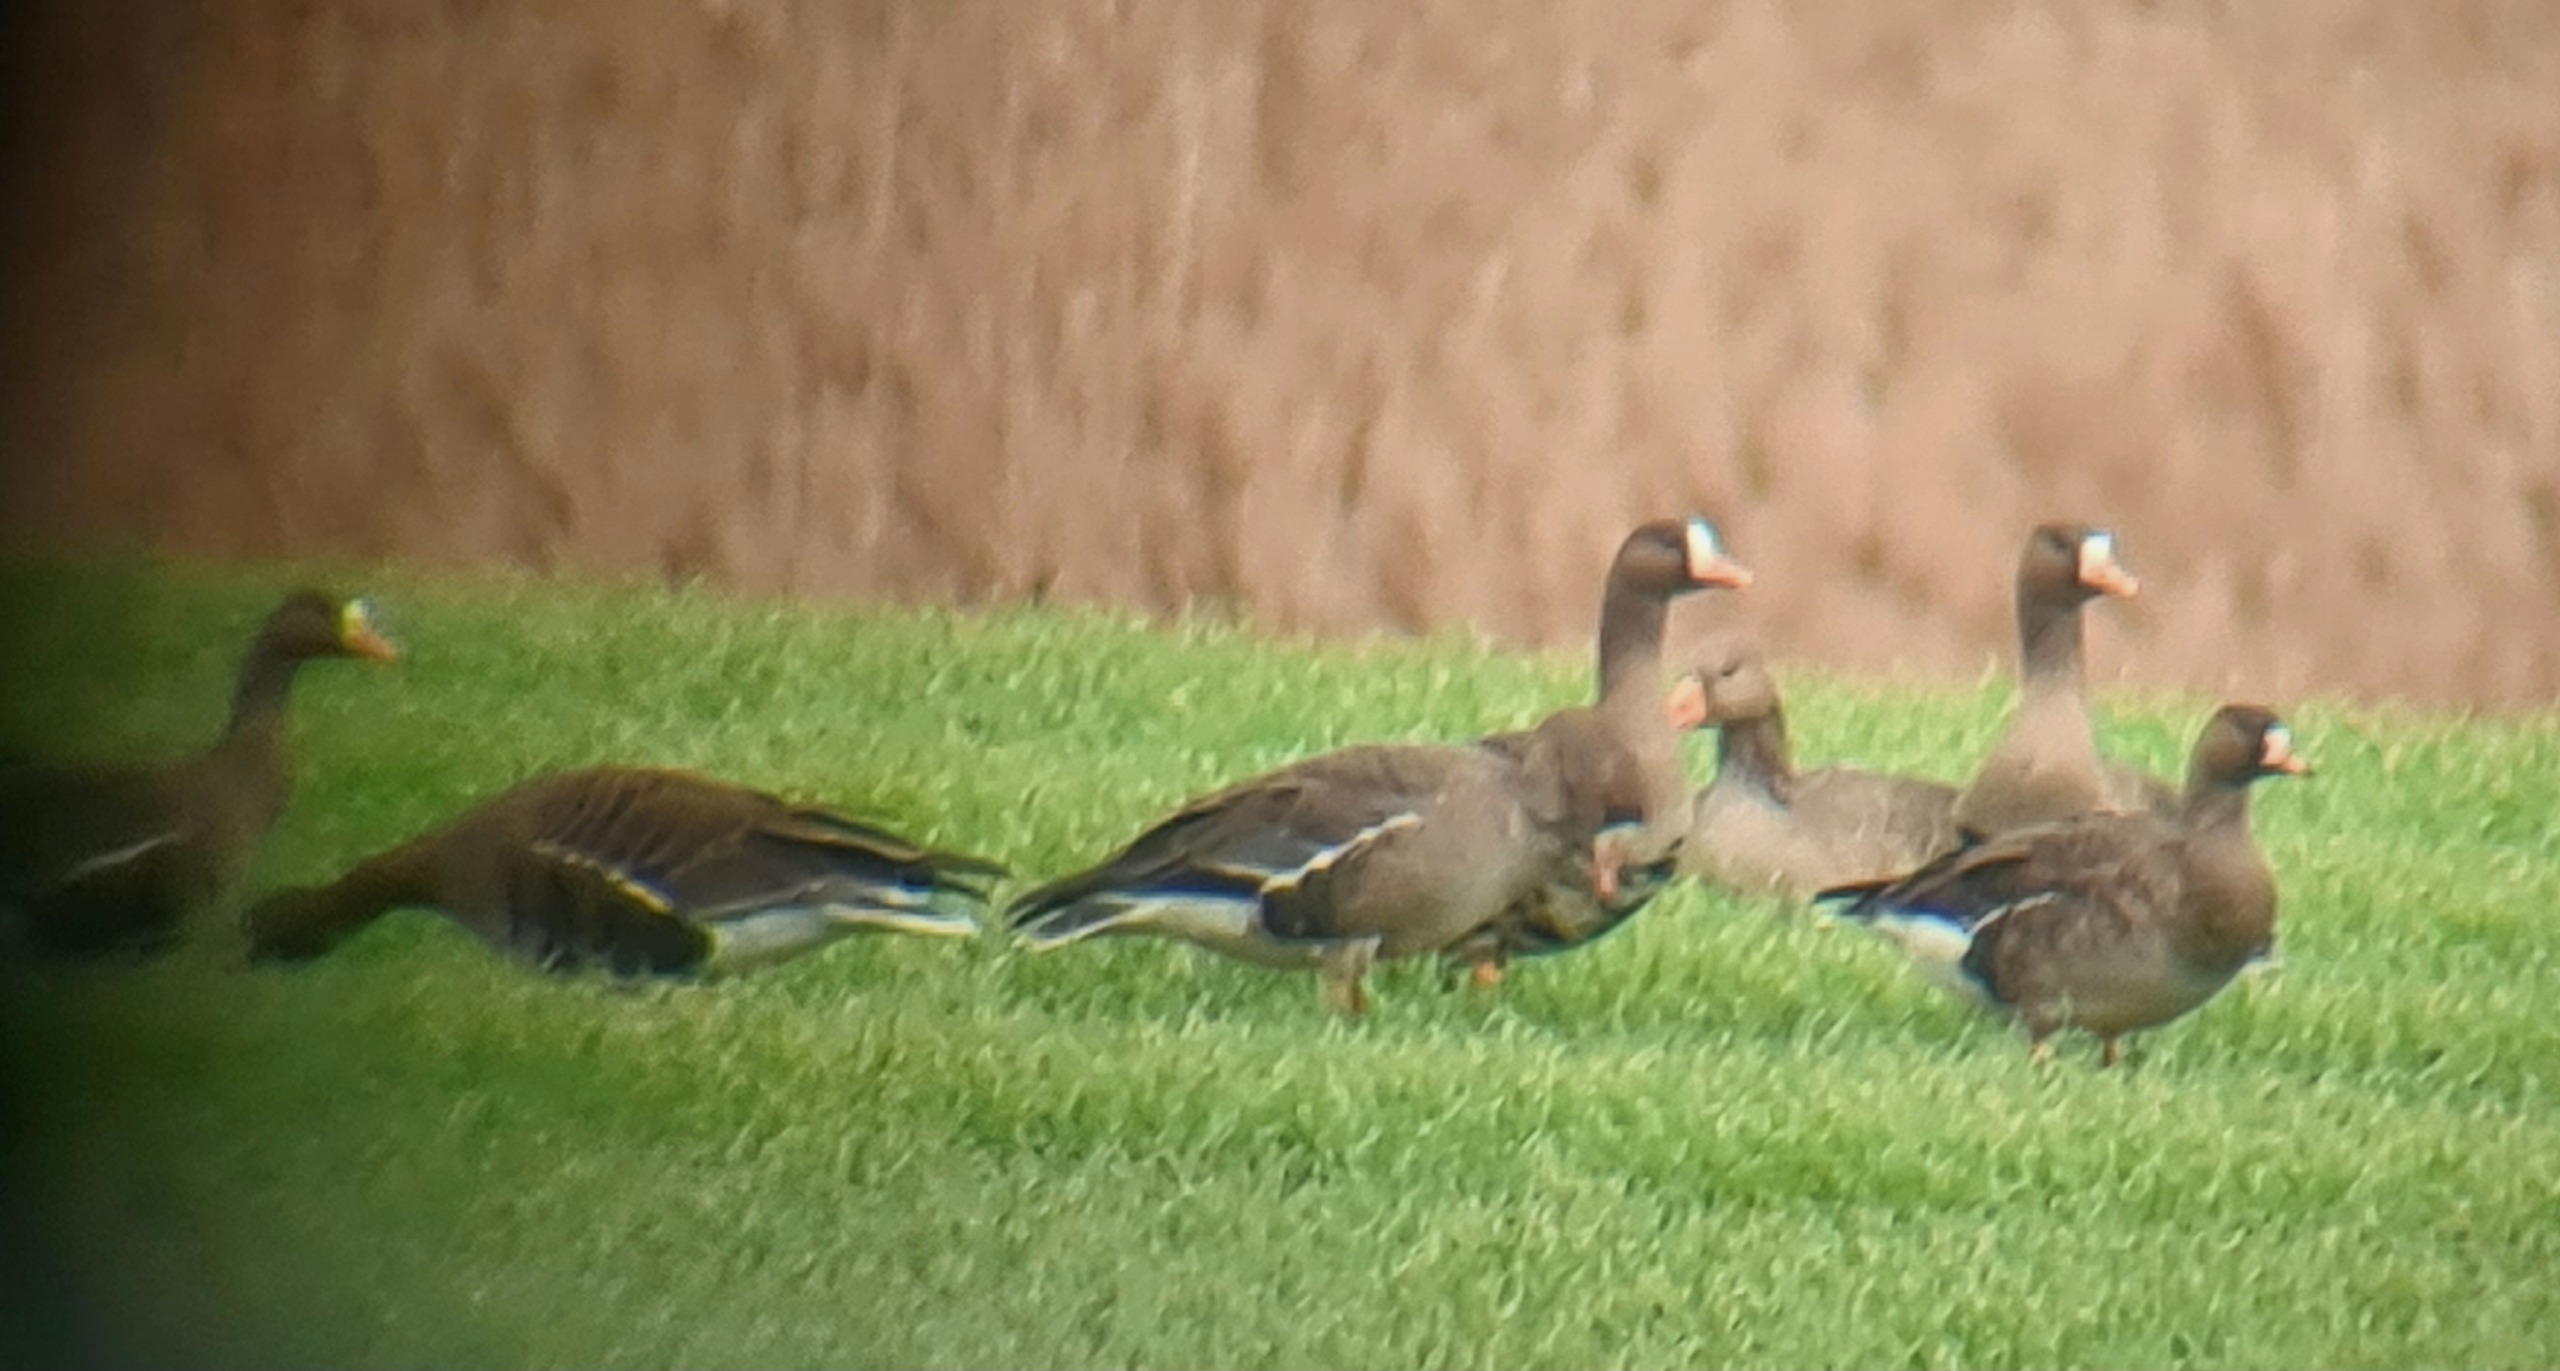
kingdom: Animalia
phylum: Chordata
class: Aves
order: Anseriformes
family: Anatidae
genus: Anser
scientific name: Anser albifrons
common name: Blisgås
